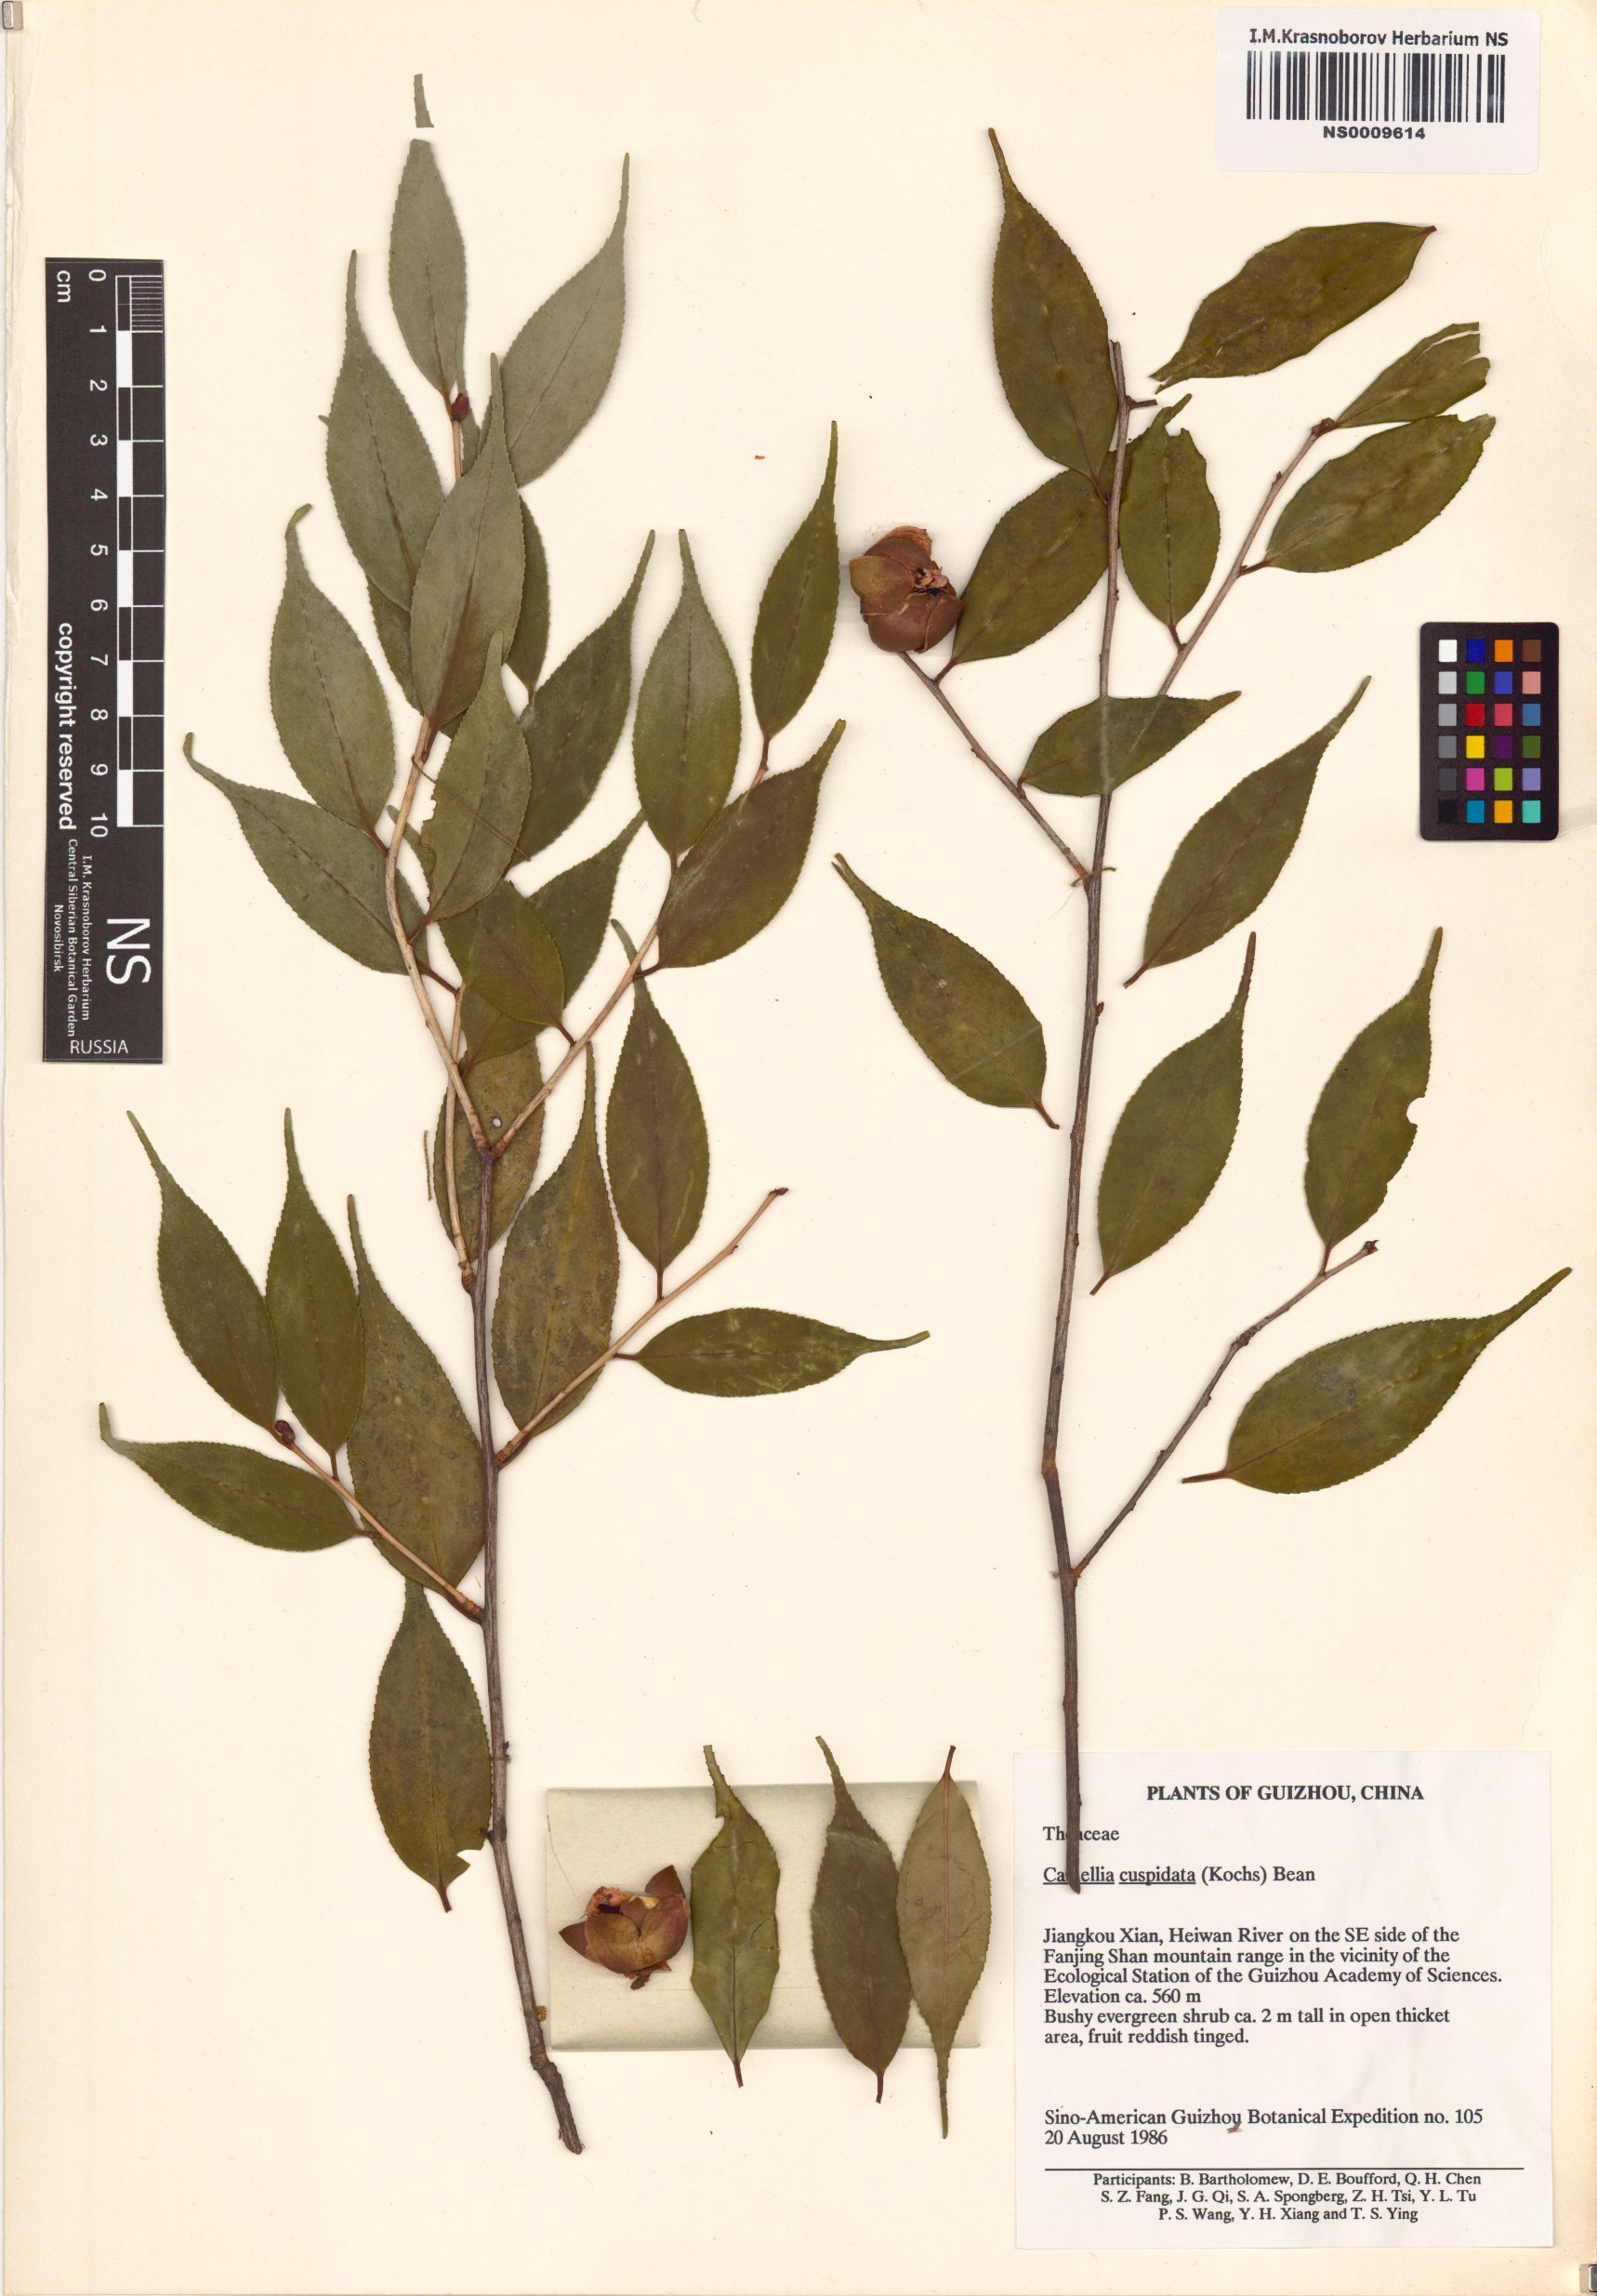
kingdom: Plantae
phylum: Tracheophyta
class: Magnoliopsida
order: Ericales
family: Theaceae
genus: Camellia
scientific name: Camellia cuspidata
